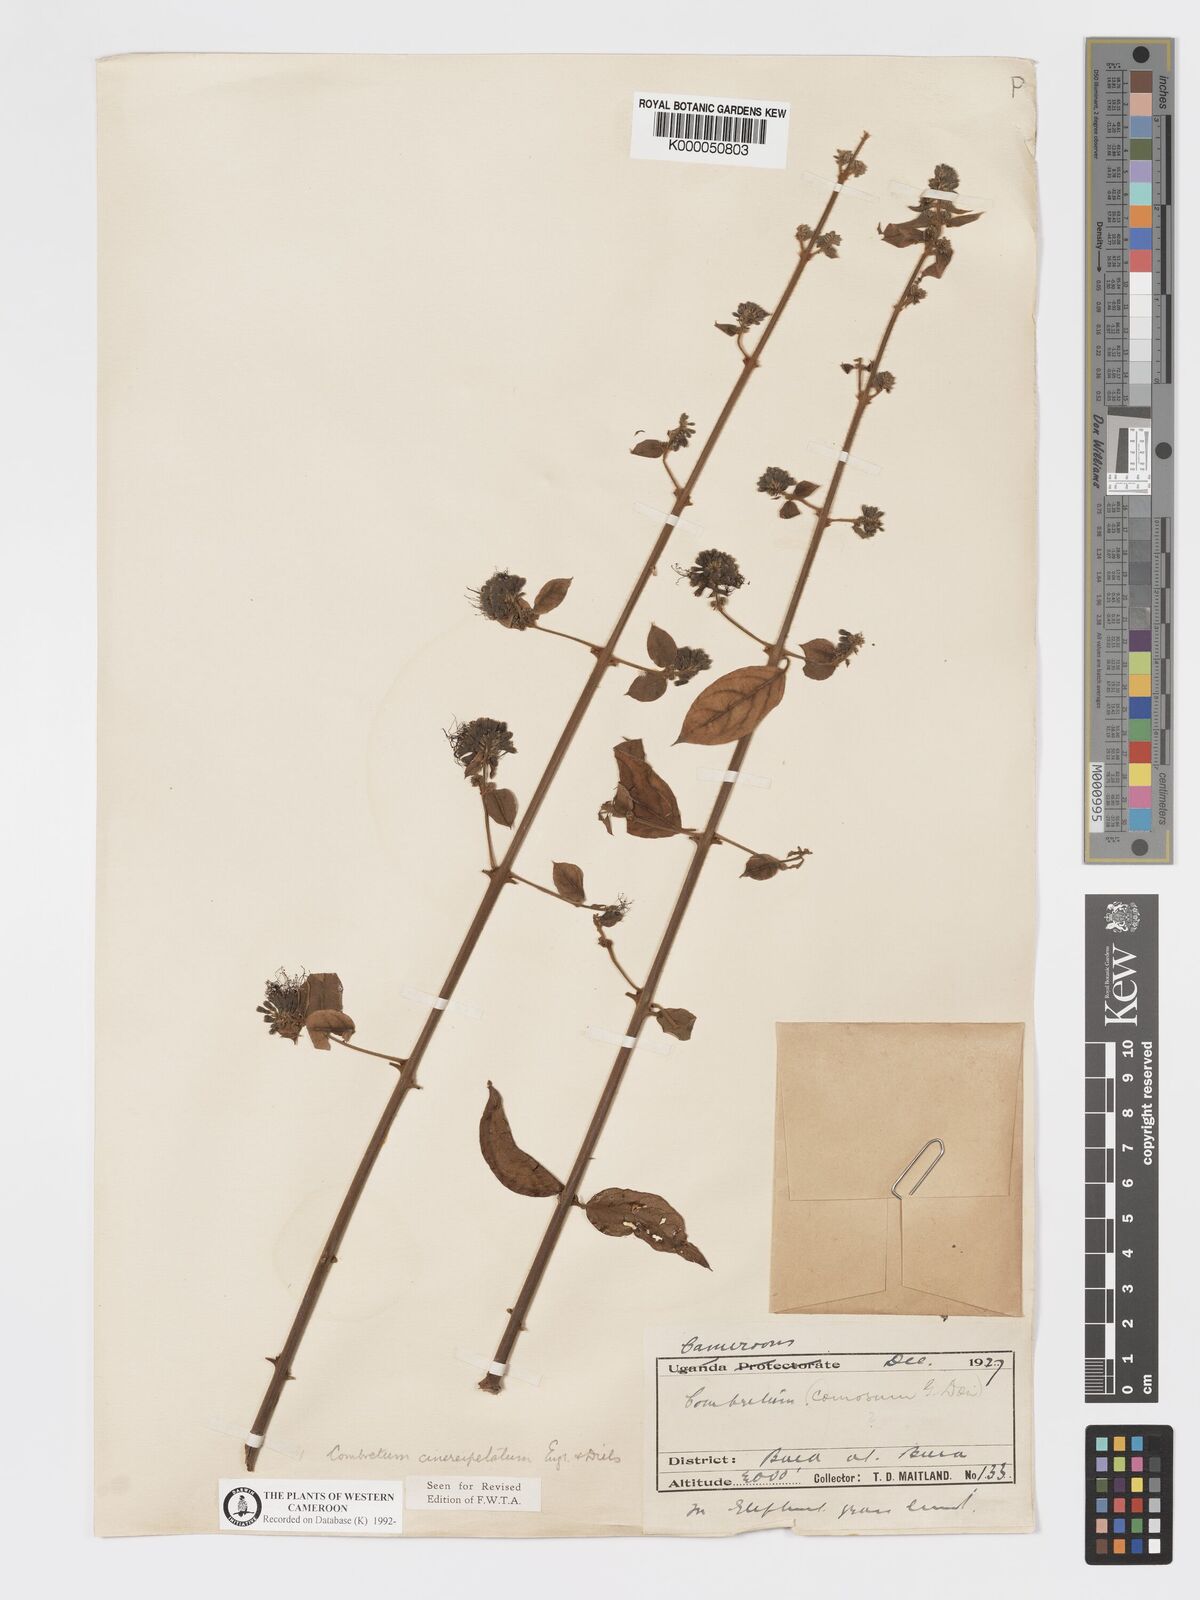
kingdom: Plantae
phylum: Tracheophyta
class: Magnoliopsida
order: Myrtales
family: Combretaceae
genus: Combretum
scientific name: Combretum
